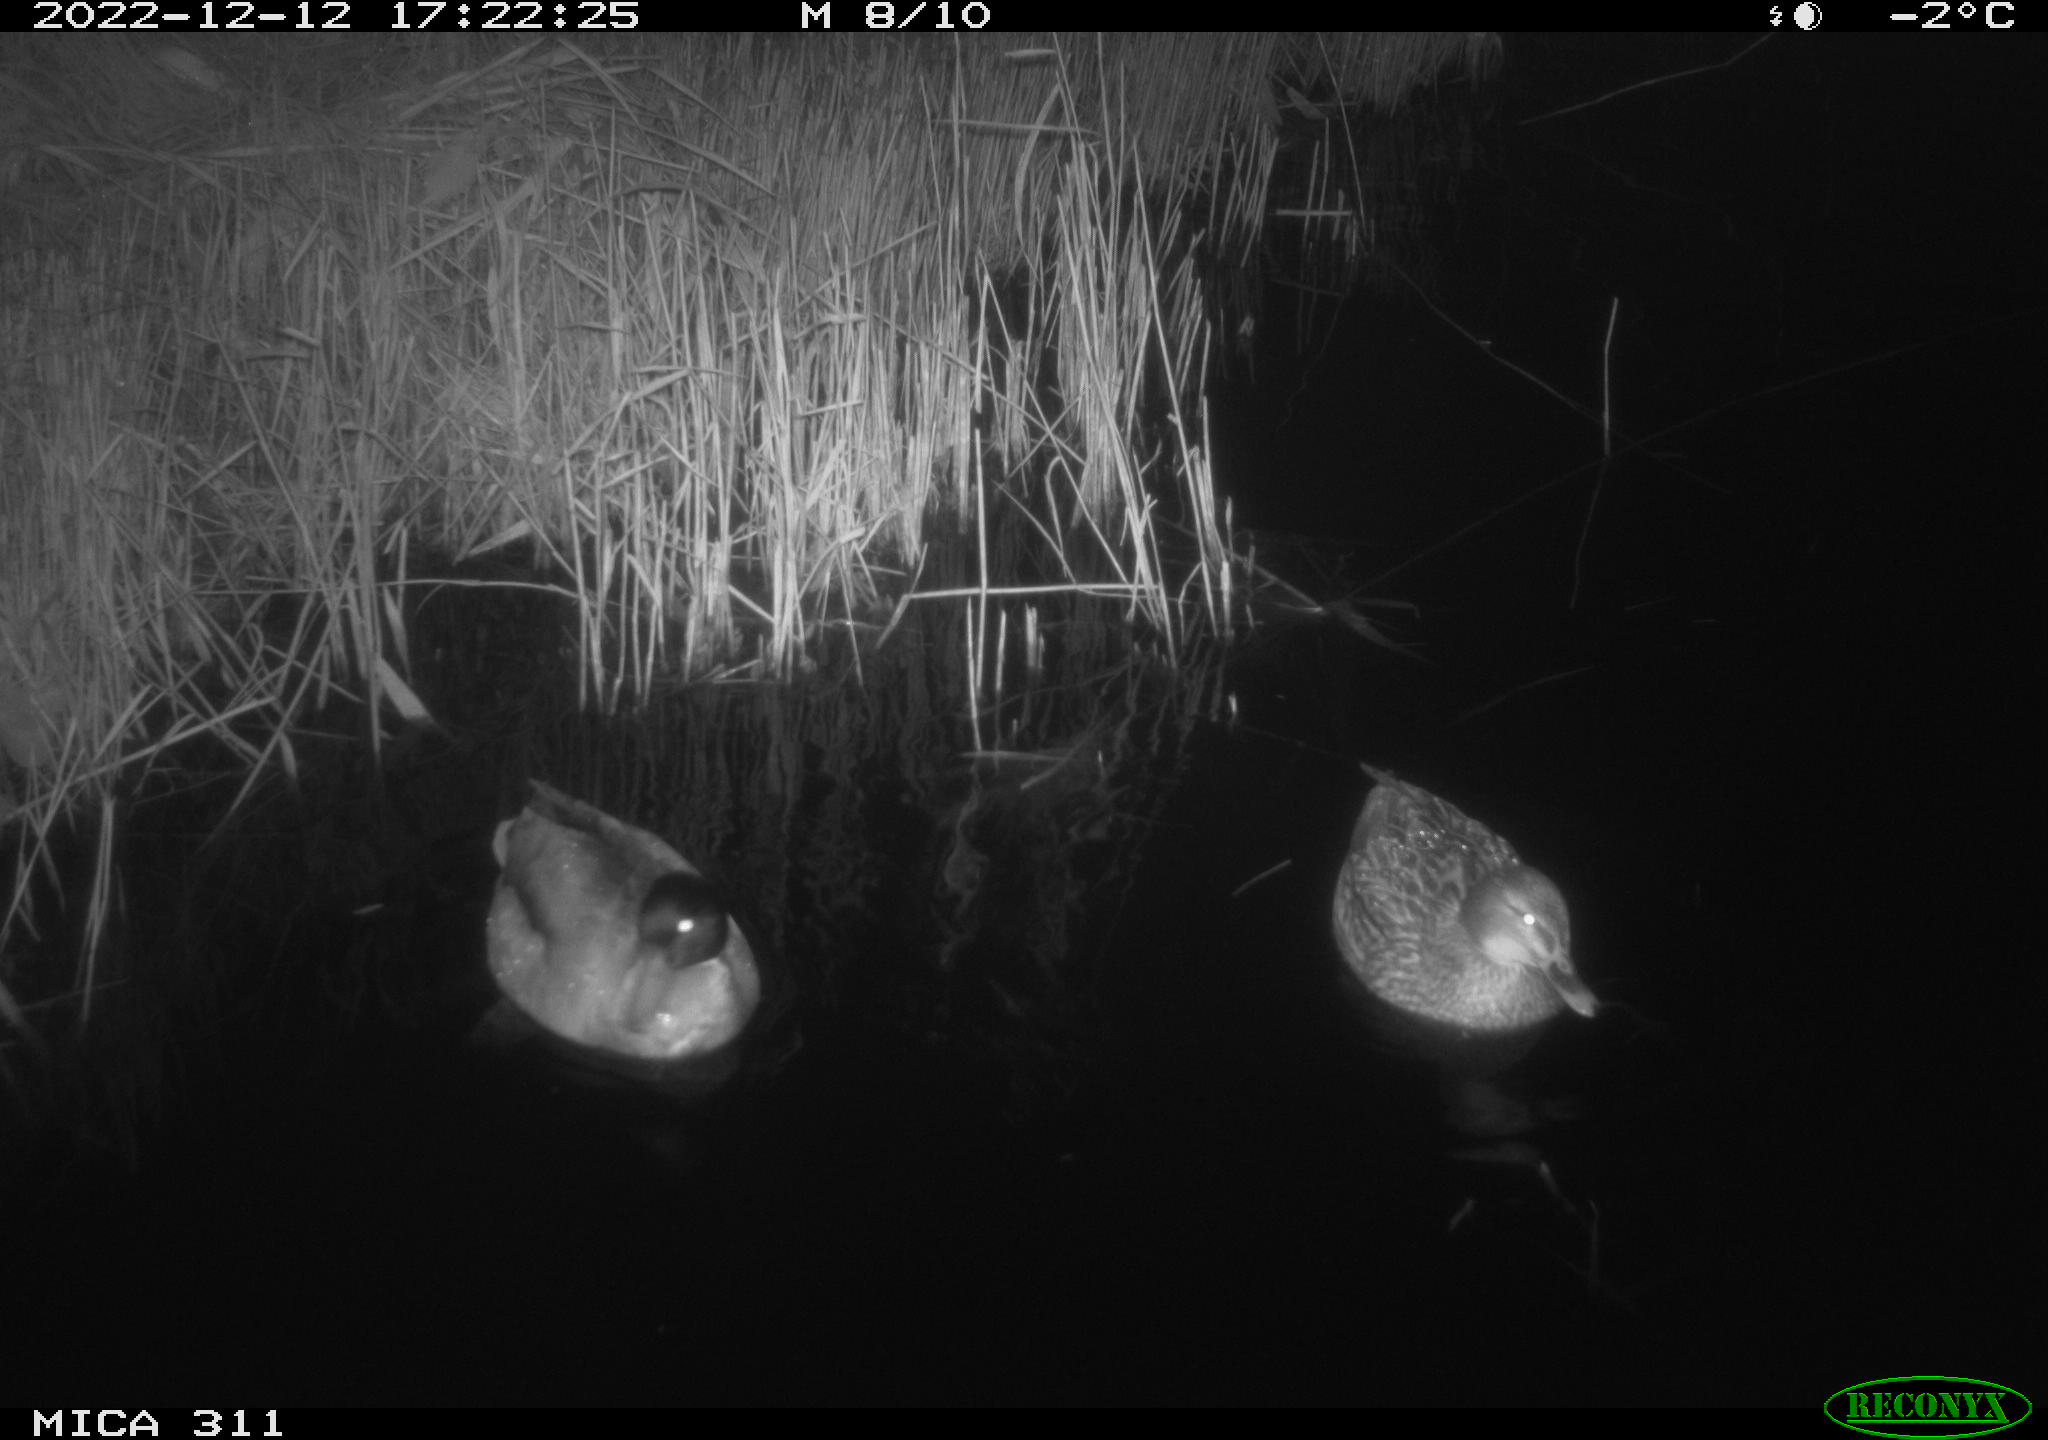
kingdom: Animalia
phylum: Chordata
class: Aves
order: Gruiformes
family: Rallidae
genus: Gallinula
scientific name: Gallinula chloropus
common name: Common moorhen
